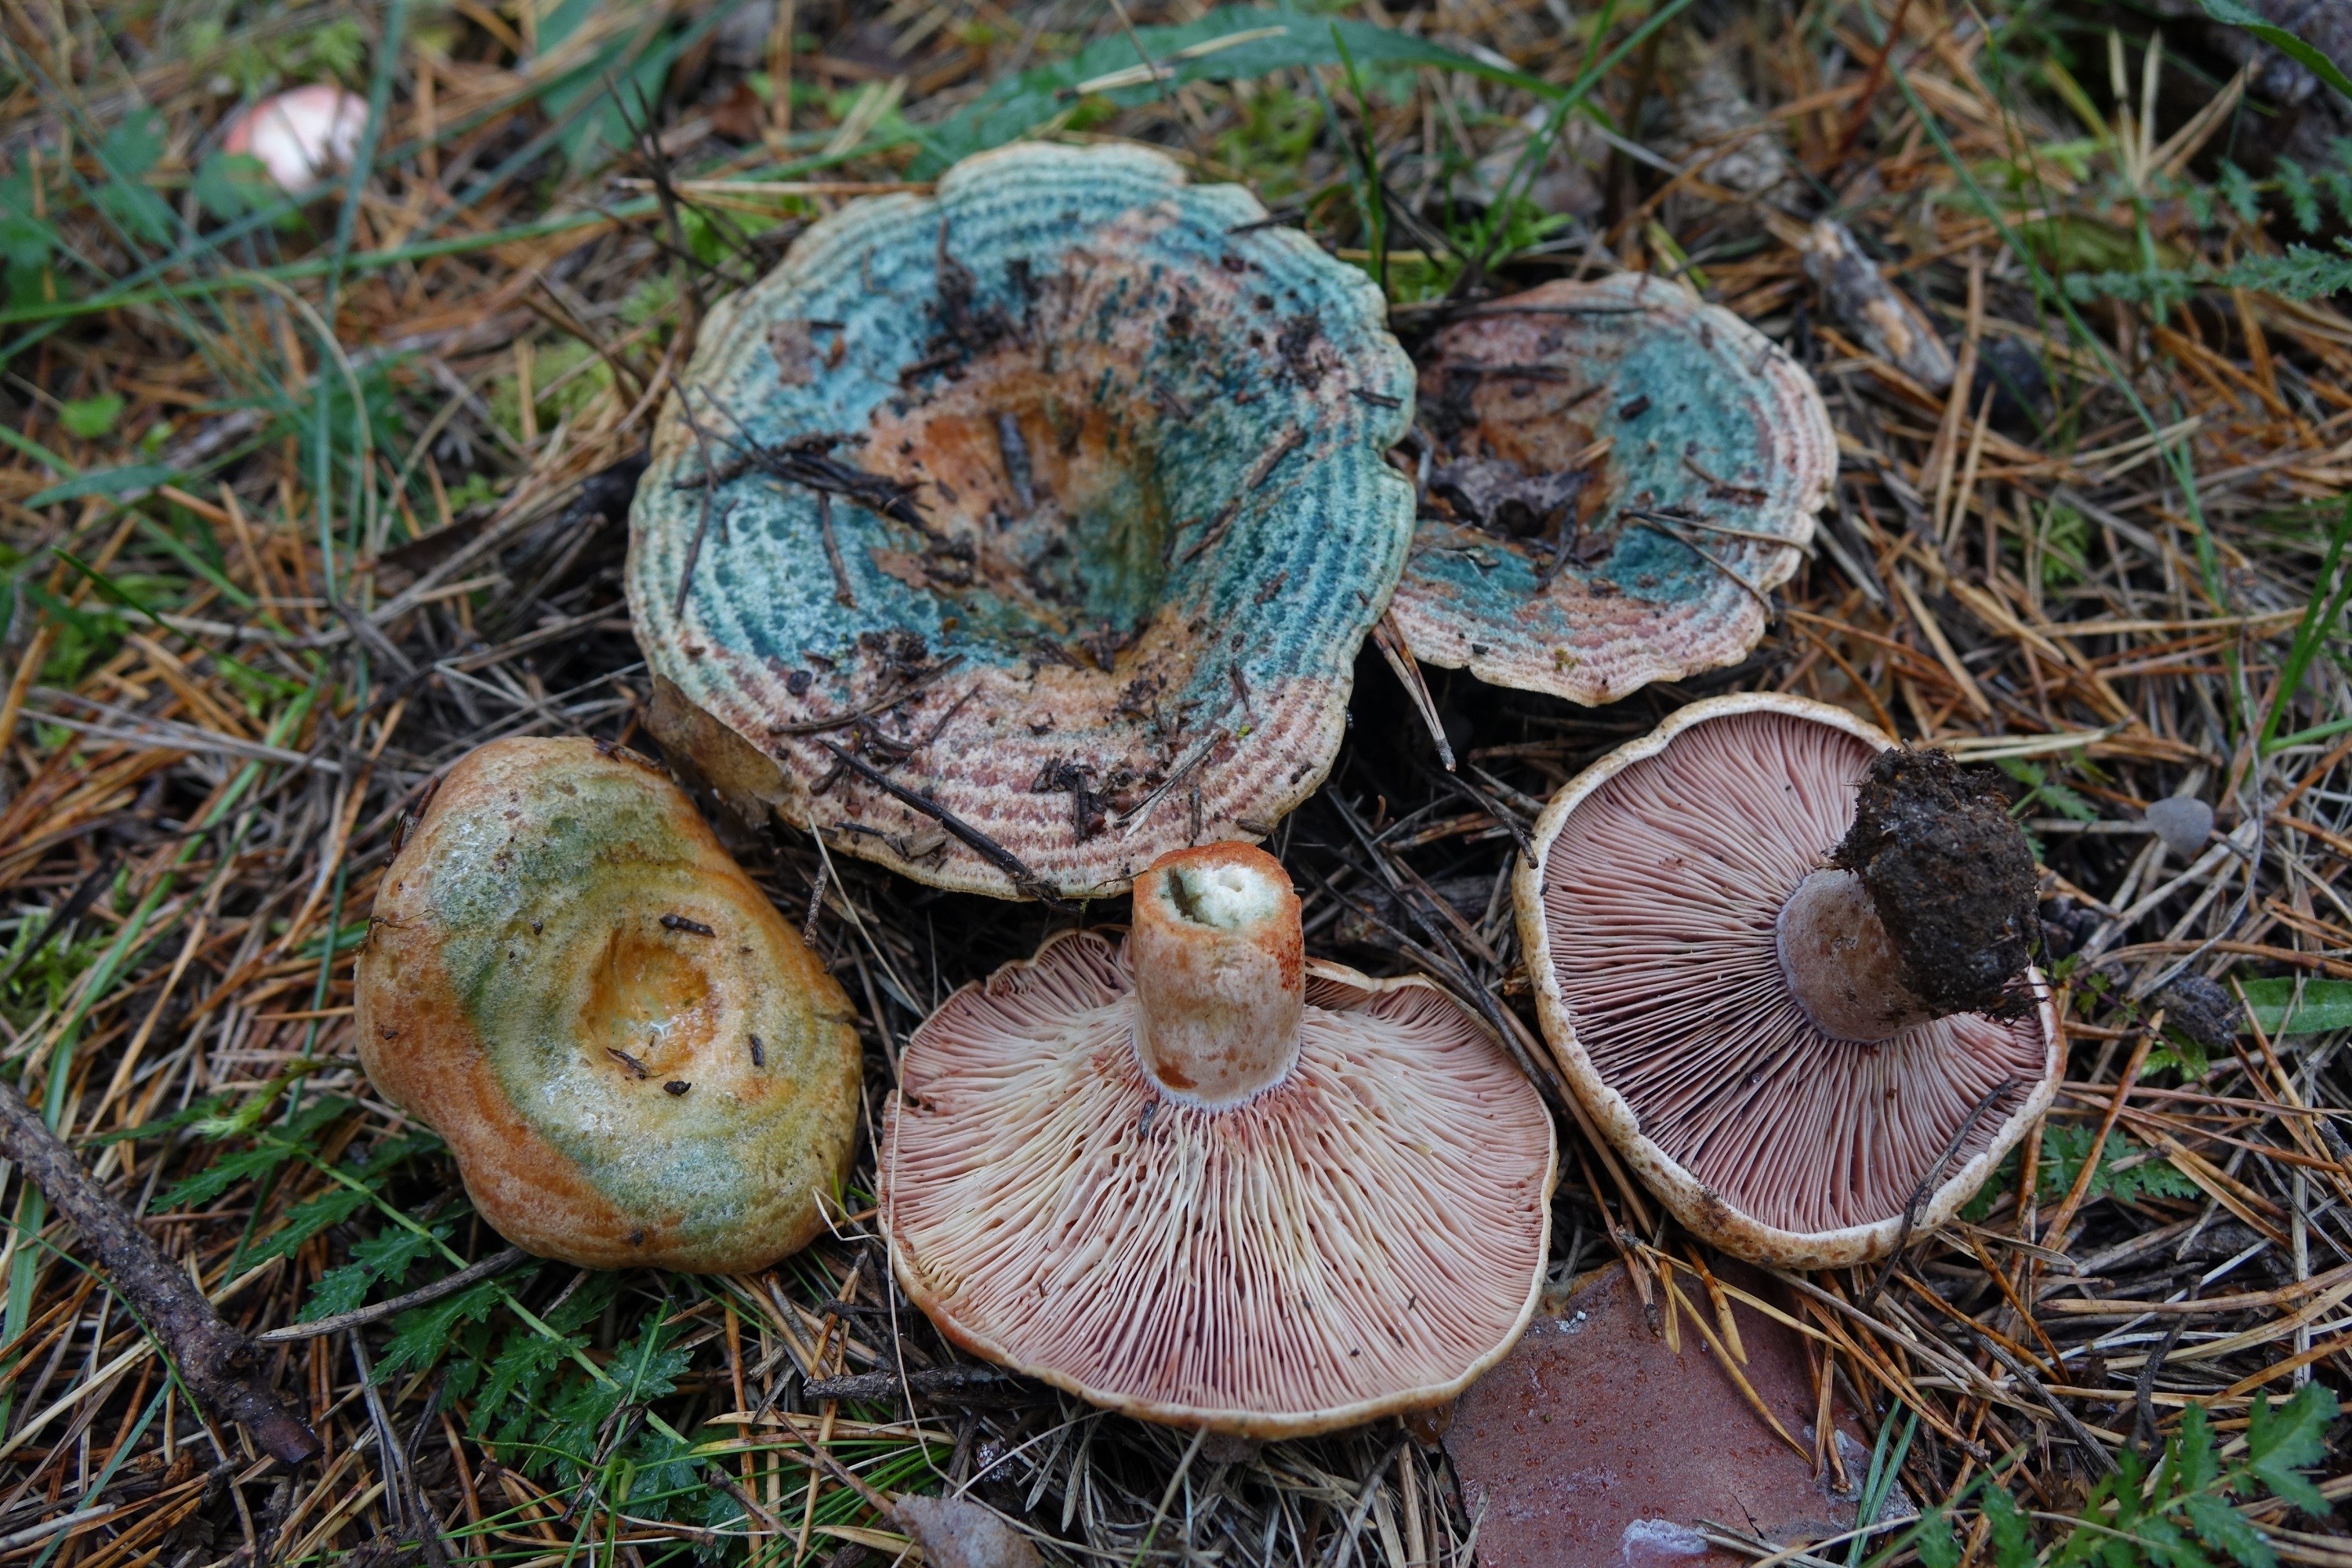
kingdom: Fungi
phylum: Basidiomycota
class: Agaricomycetes
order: Russulales
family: Russulaceae
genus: Lactarius
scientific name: Lactarius sanguifluus
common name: Bloody milkcap
